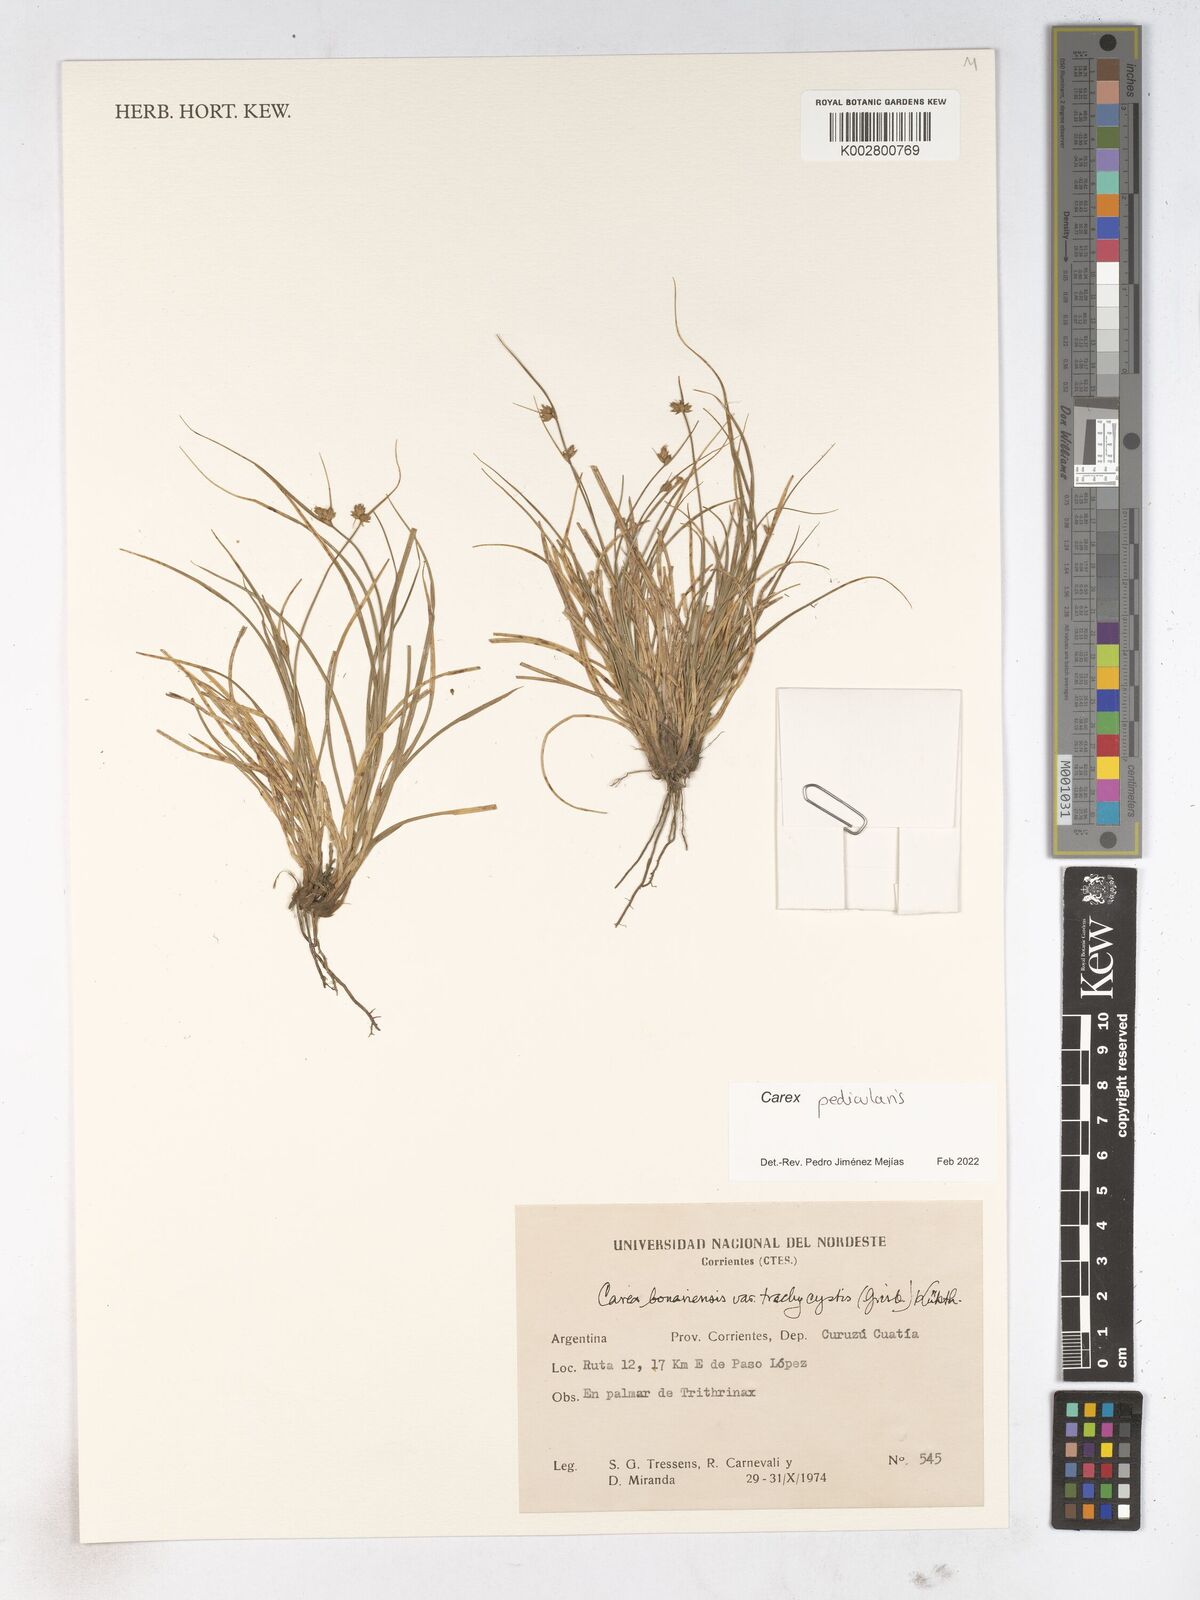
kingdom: Plantae
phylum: Tracheophyta
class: Liliopsida
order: Poales
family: Cyperaceae
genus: Carex
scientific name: Carex bonariensis
